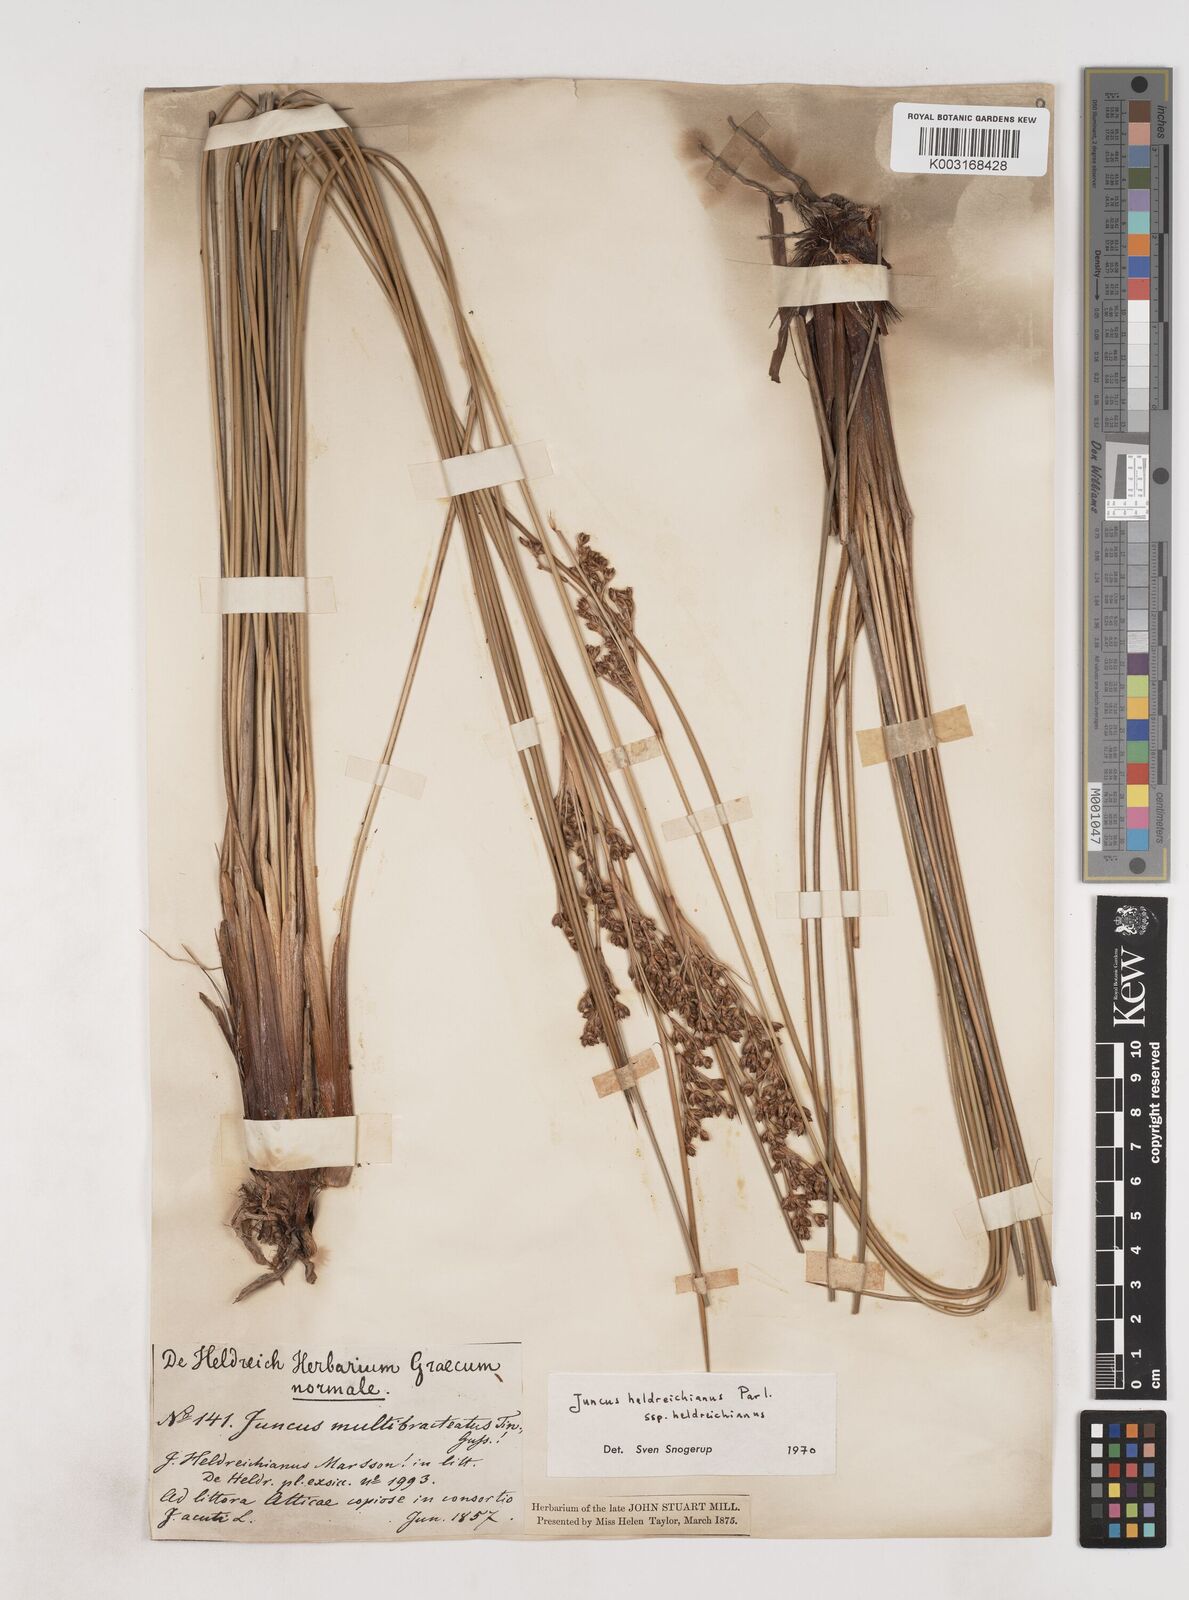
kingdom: Plantae
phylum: Tracheophyta
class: Liliopsida
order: Poales
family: Juncaceae
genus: Juncus
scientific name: Juncus heldreichianus
